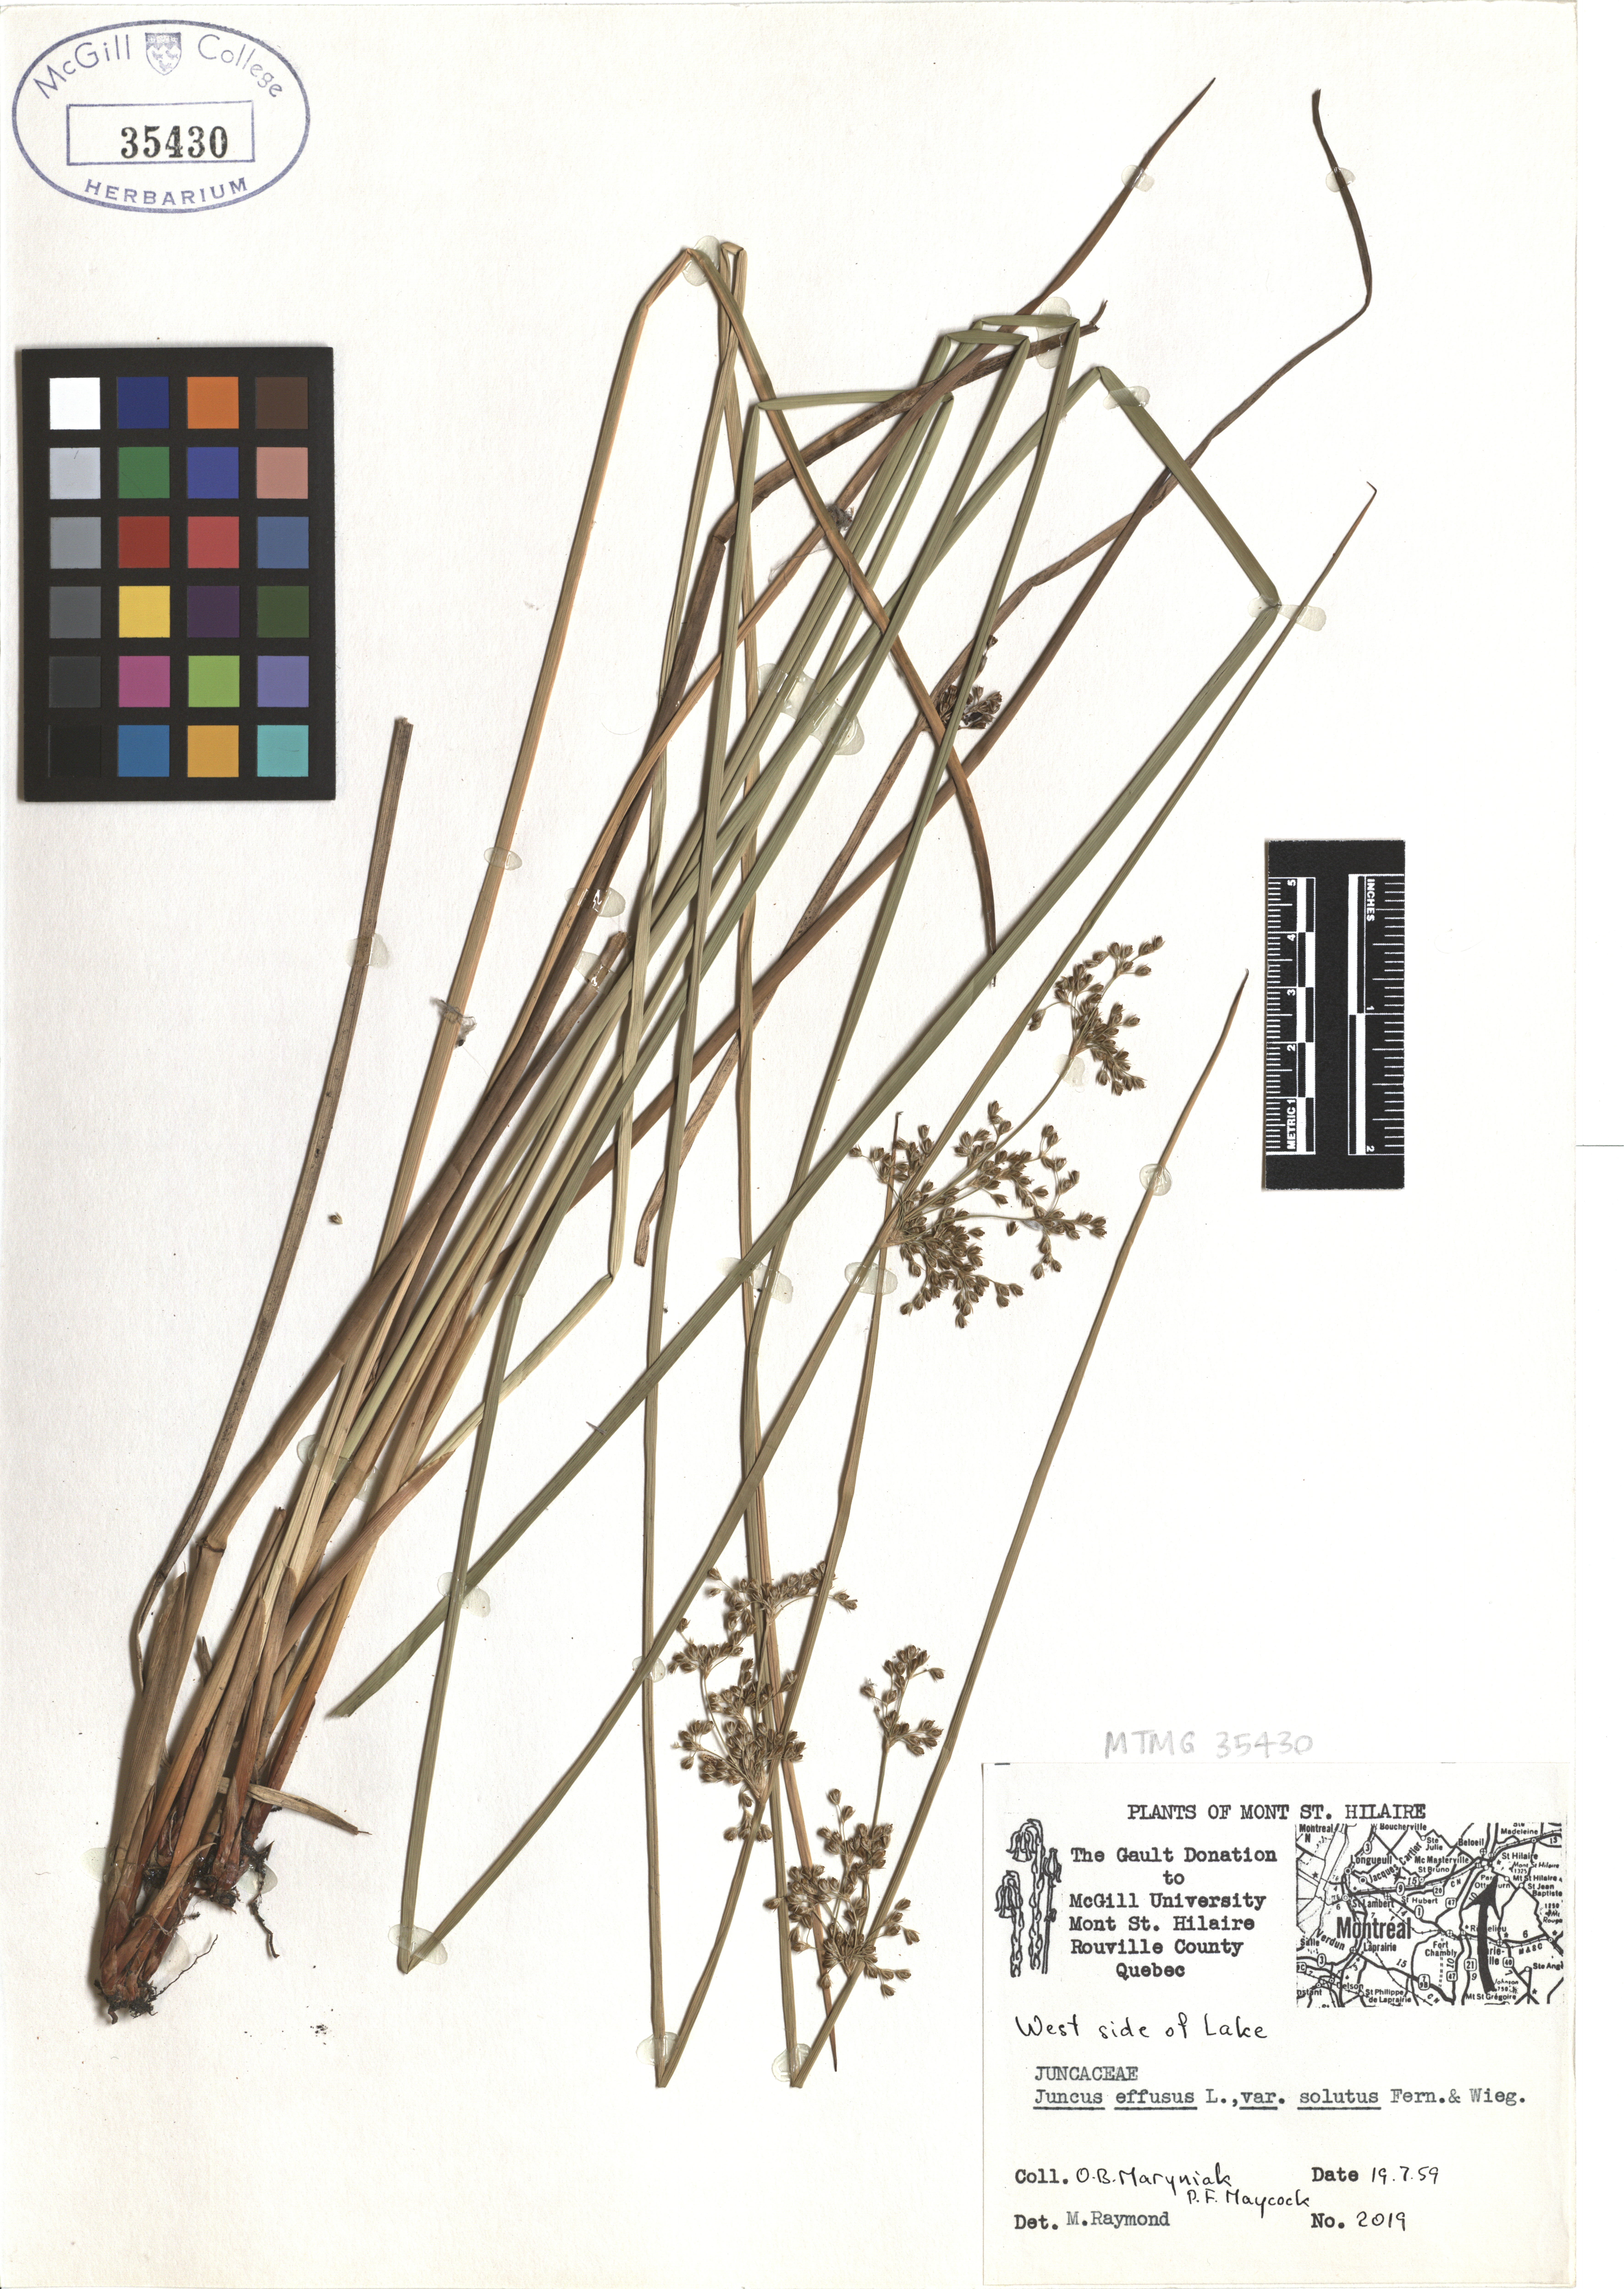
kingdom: Plantae
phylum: Tracheophyta
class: Liliopsida
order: Poales
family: Juncaceae
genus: Juncus
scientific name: Juncus effusus
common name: Soft rush
